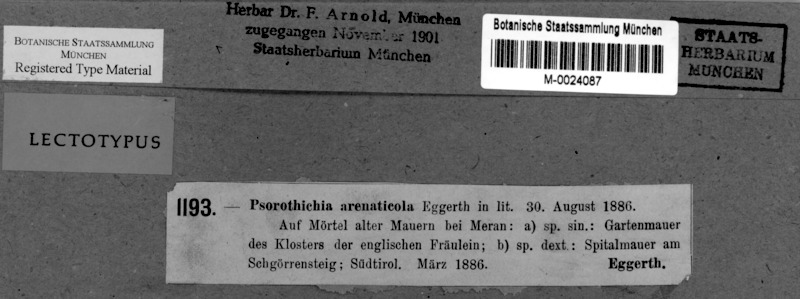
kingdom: Fungi
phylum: Ascomycota
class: Lichinomycetes
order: Lichinales
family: Lichinaceae
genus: Psorotichia
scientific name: Psorotichia arenaticola
